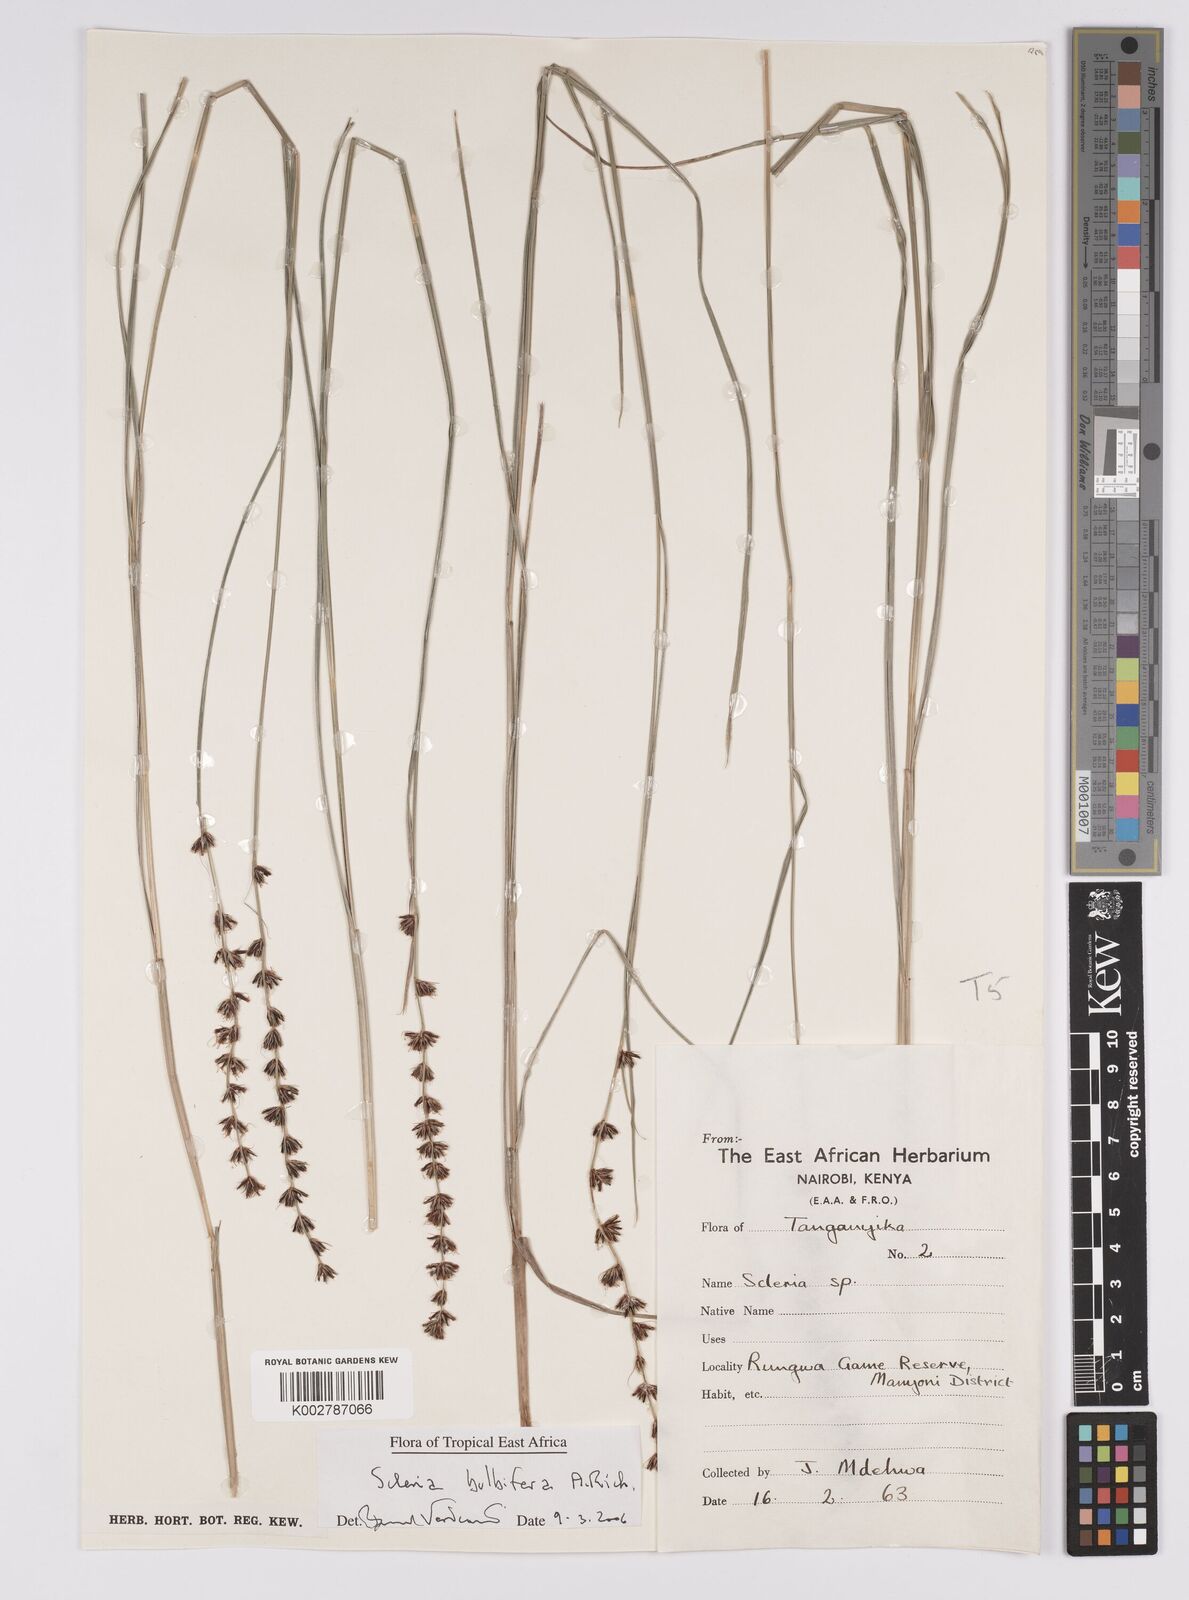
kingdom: Plantae
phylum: Tracheophyta
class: Liliopsida
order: Poales
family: Cyperaceae
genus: Scleria
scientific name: Scleria bulbifera
